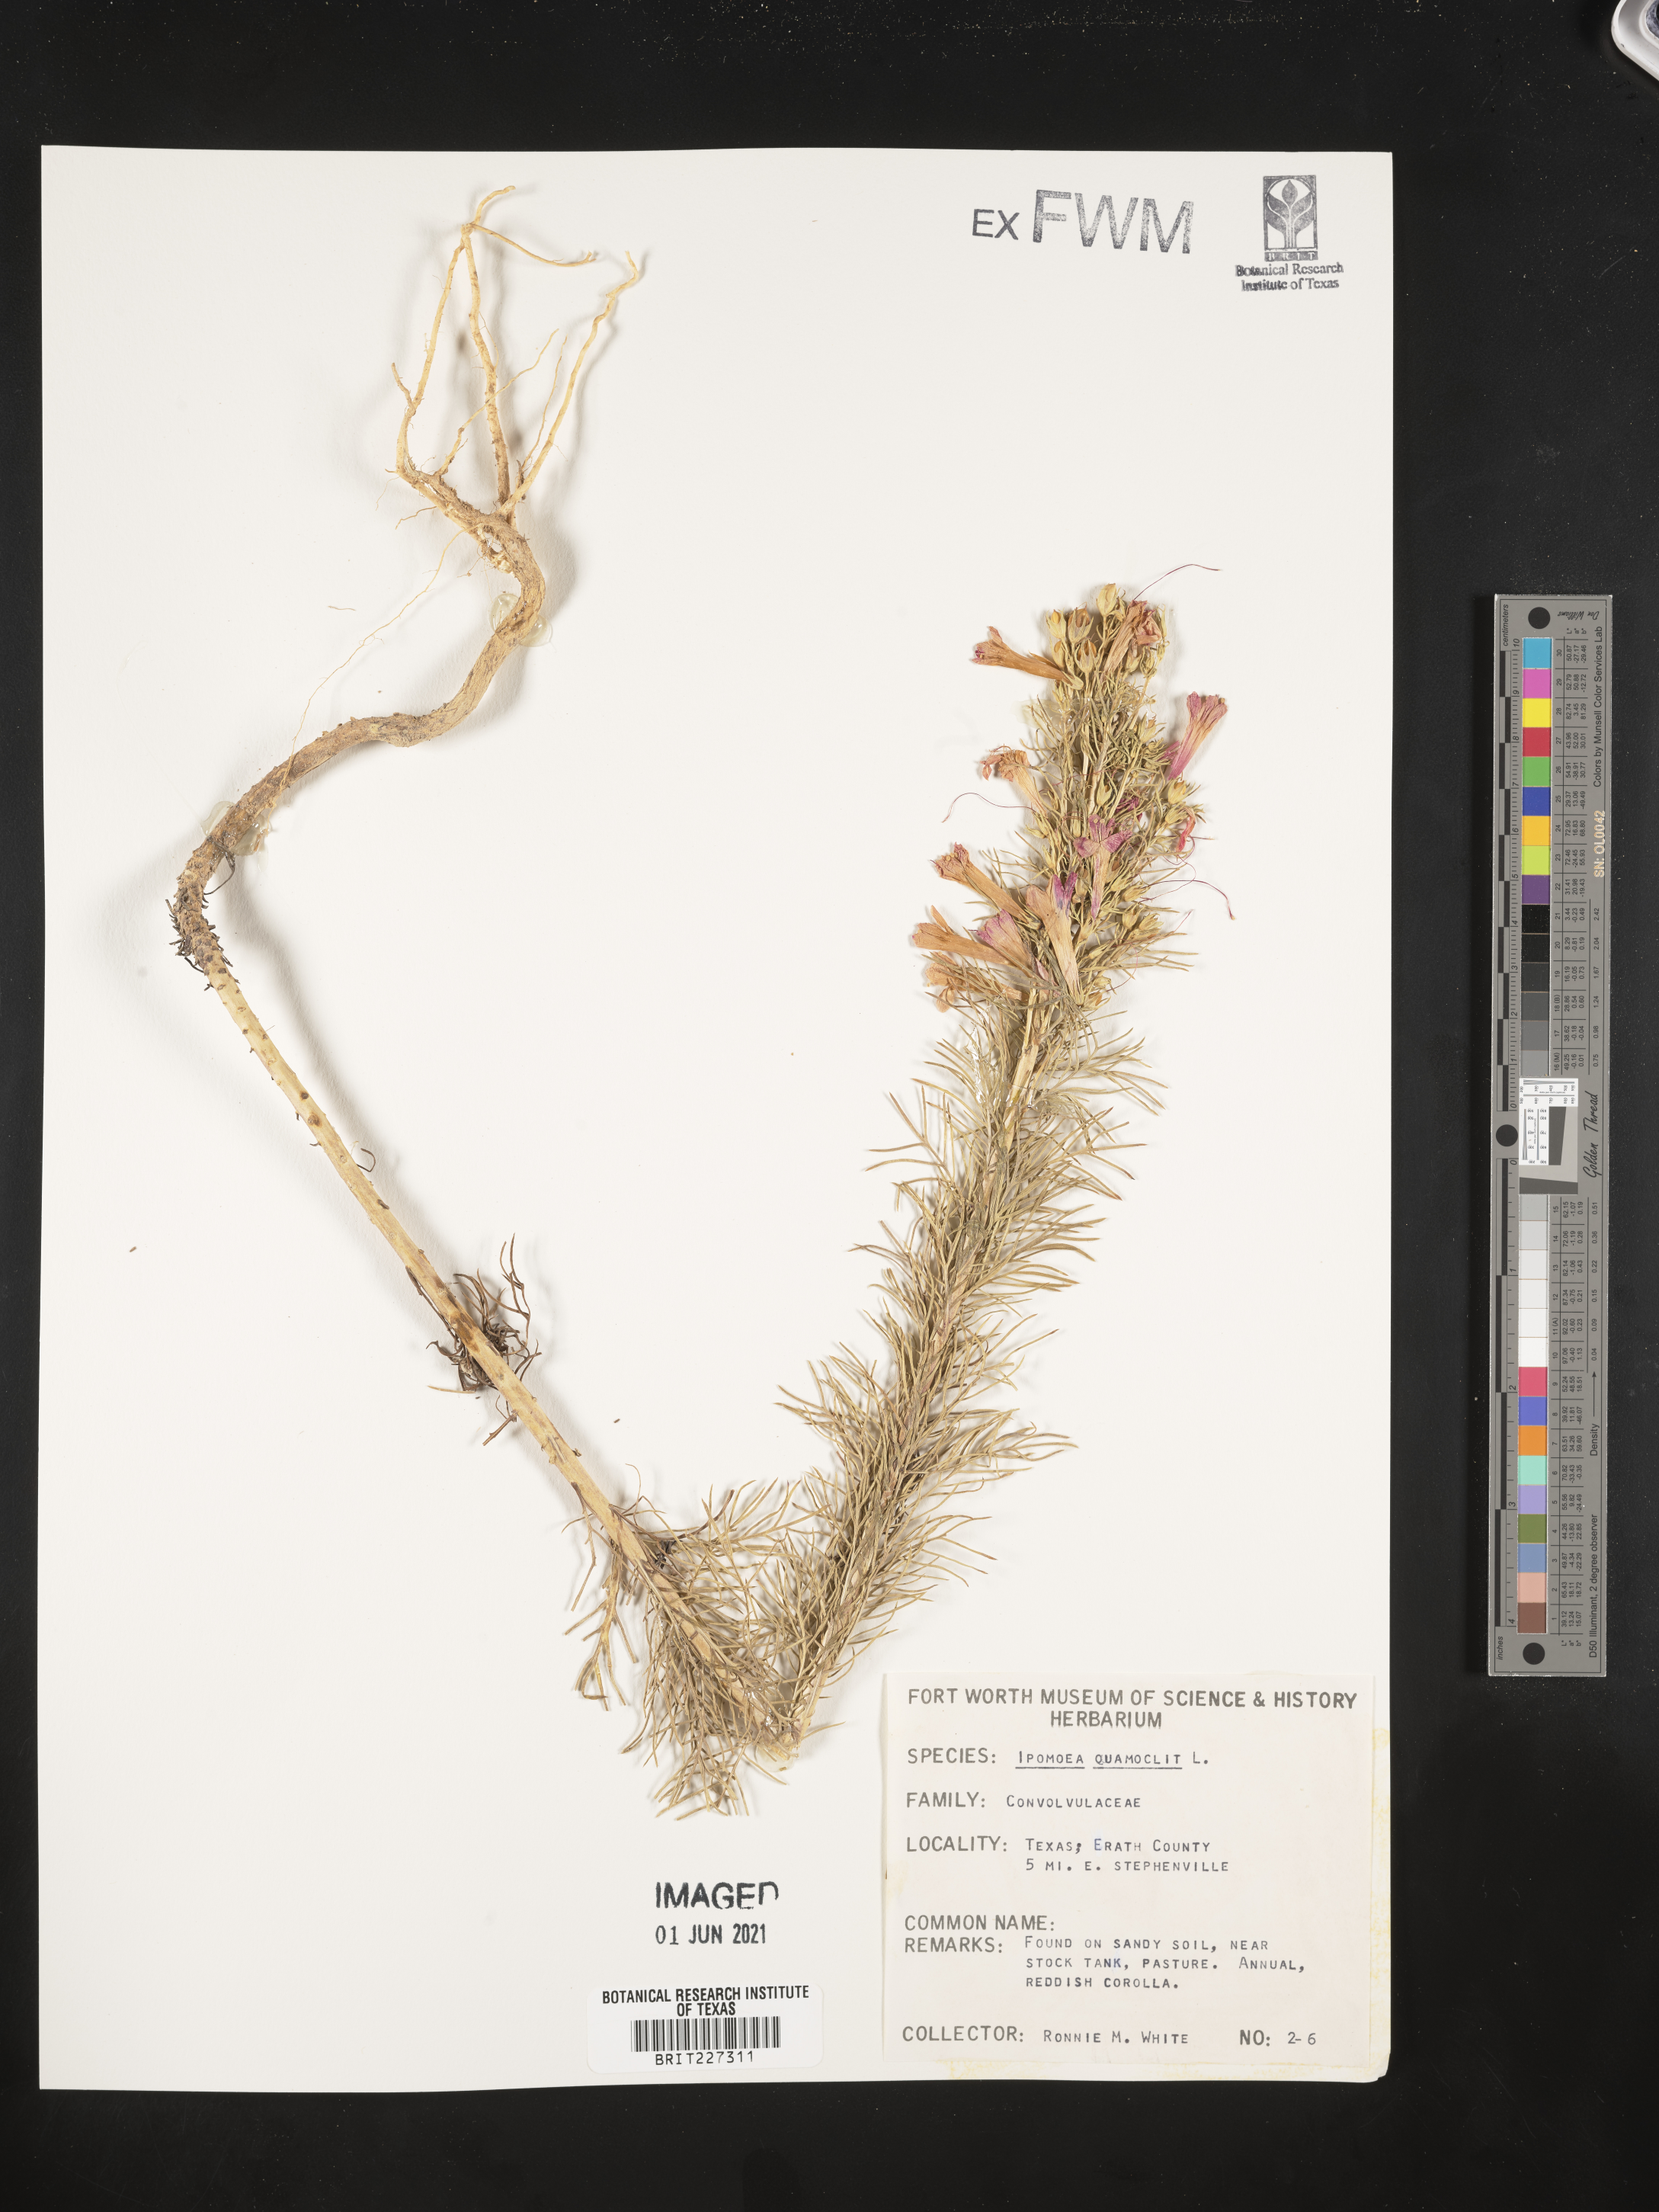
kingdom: Plantae
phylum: Tracheophyta
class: Magnoliopsida
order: Ericales
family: Polemoniaceae
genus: Ipomopsis
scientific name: Ipomopsis
